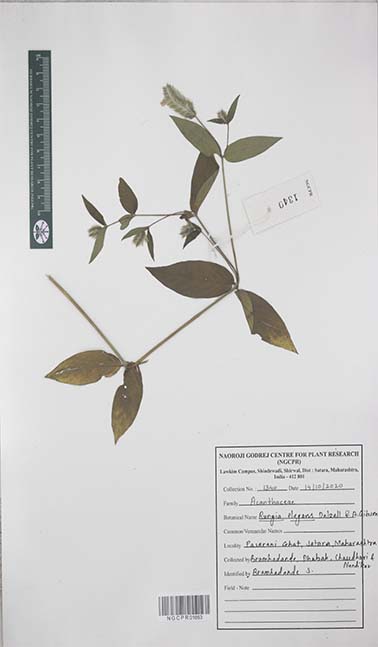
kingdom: Plantae
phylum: Tracheophyta
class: Magnoliopsida
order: Lamiales
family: Acanthaceae
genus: Rungia
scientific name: Rungia elegans
